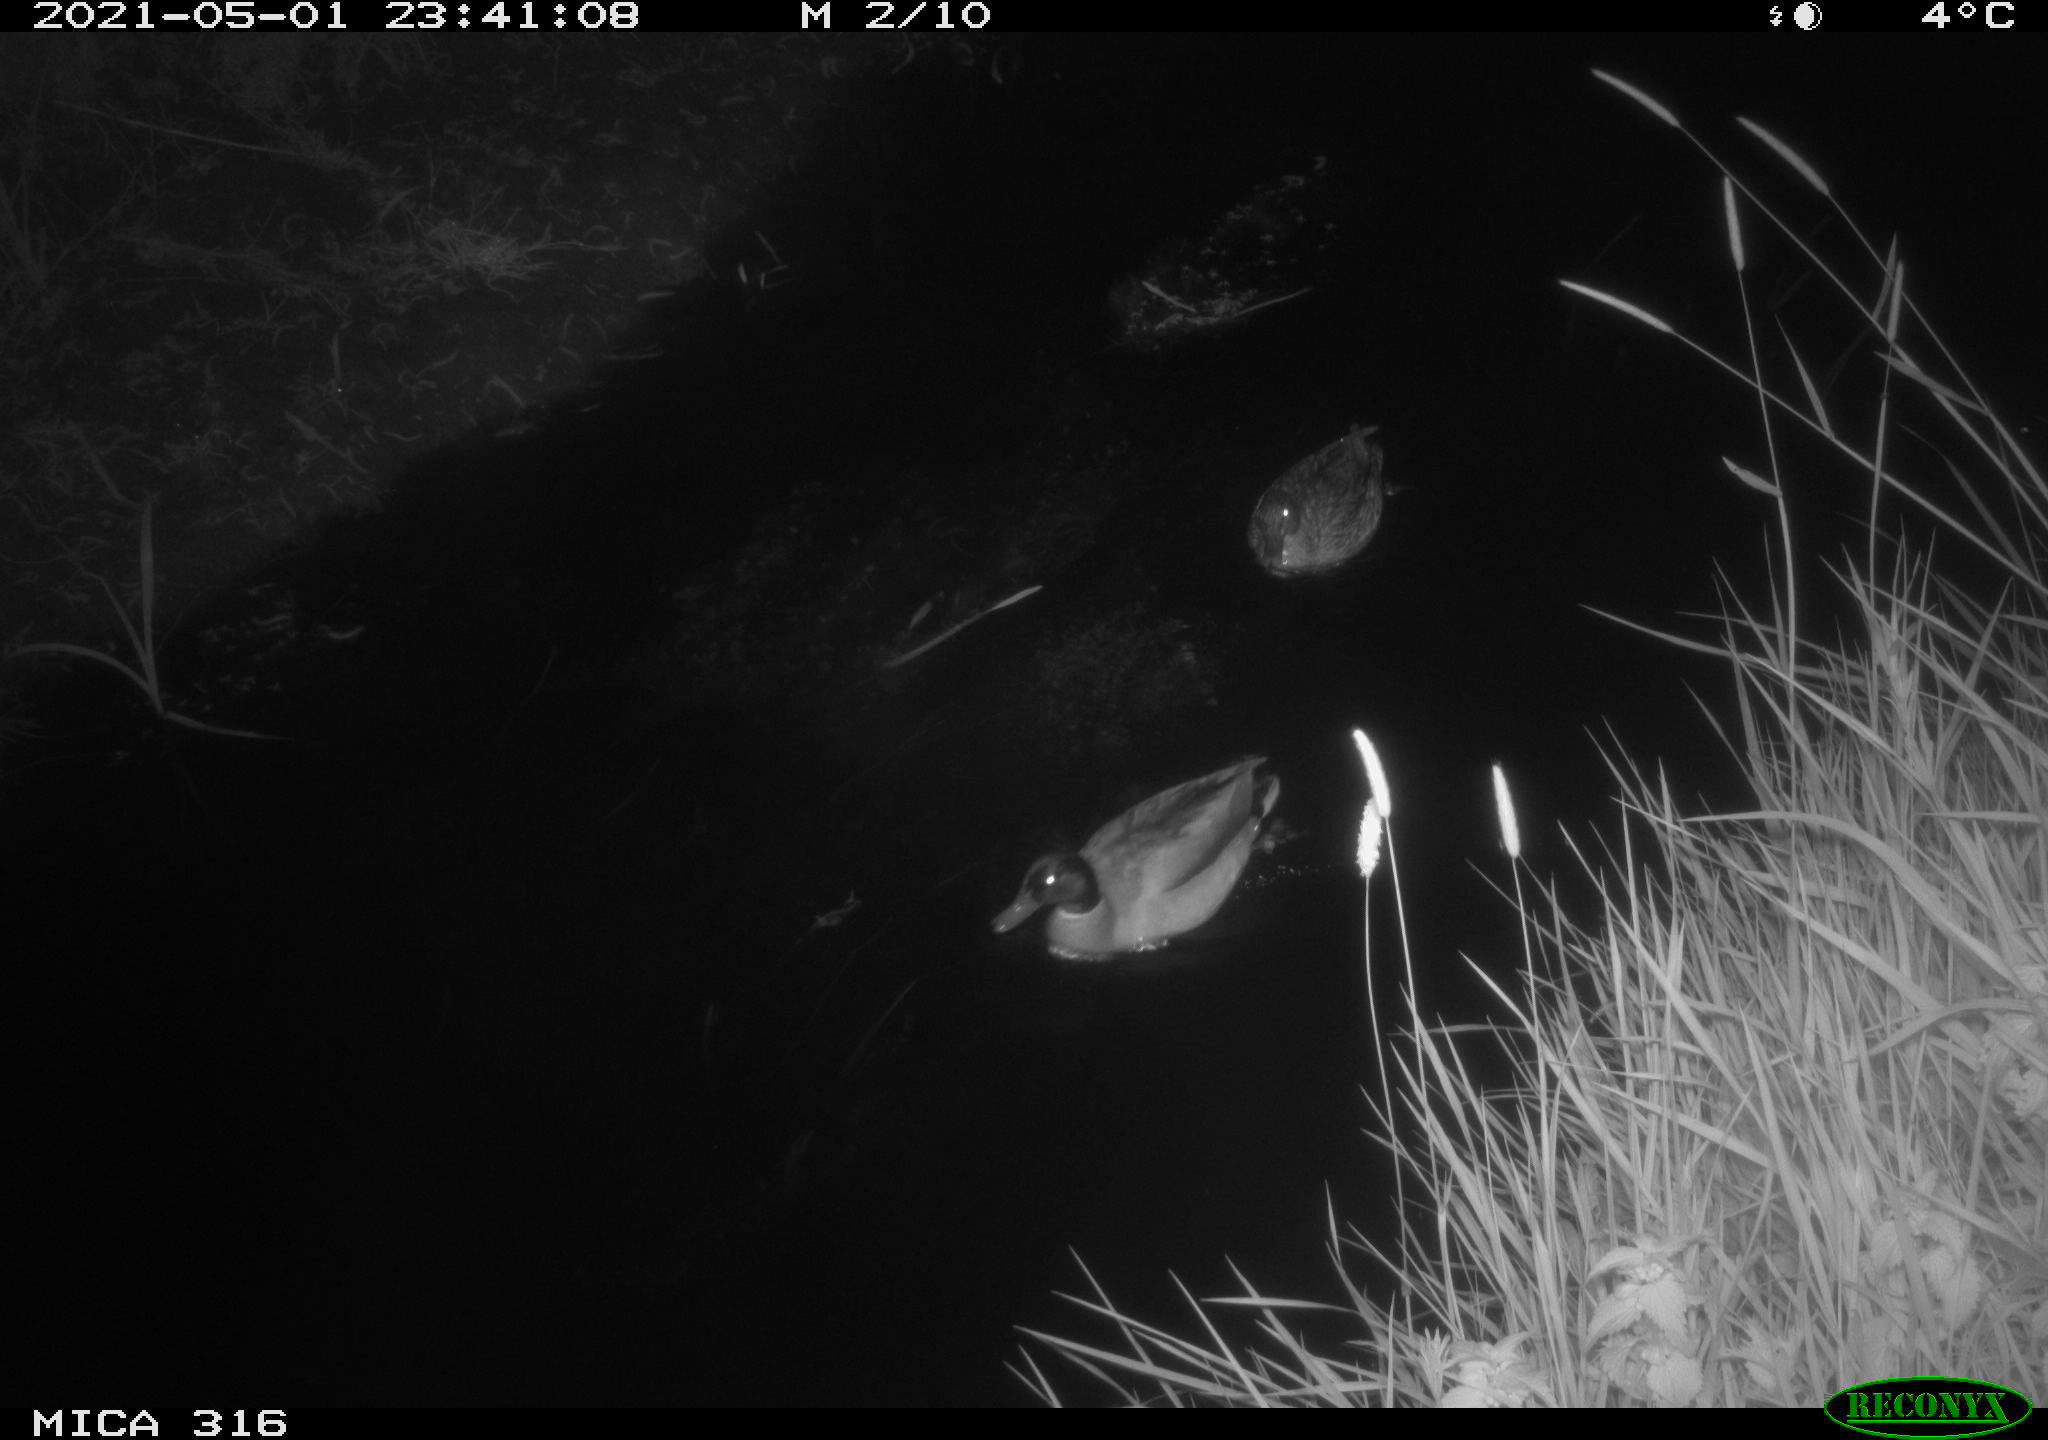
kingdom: Animalia
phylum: Chordata
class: Aves
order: Gruiformes
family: Rallidae
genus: Gallinula
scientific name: Gallinula chloropus
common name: Common moorhen
